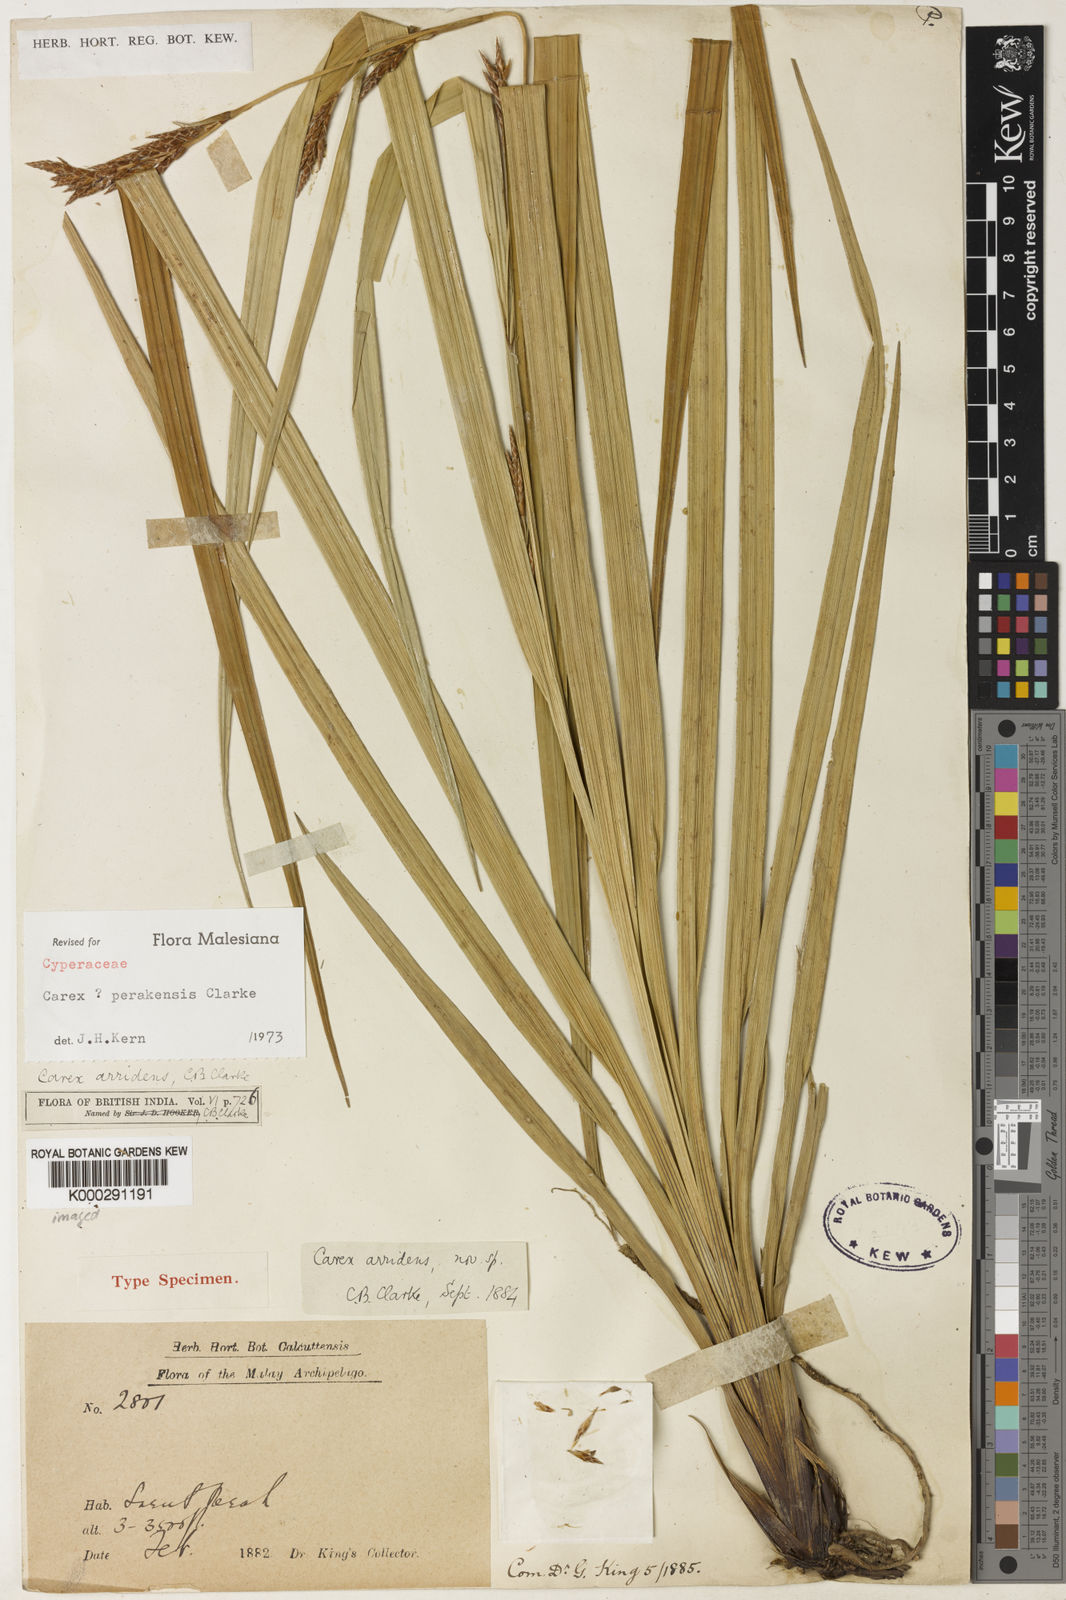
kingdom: Plantae
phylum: Tracheophyta
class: Liliopsida
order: Poales
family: Cyperaceae
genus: Carex
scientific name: Carex perakensis
